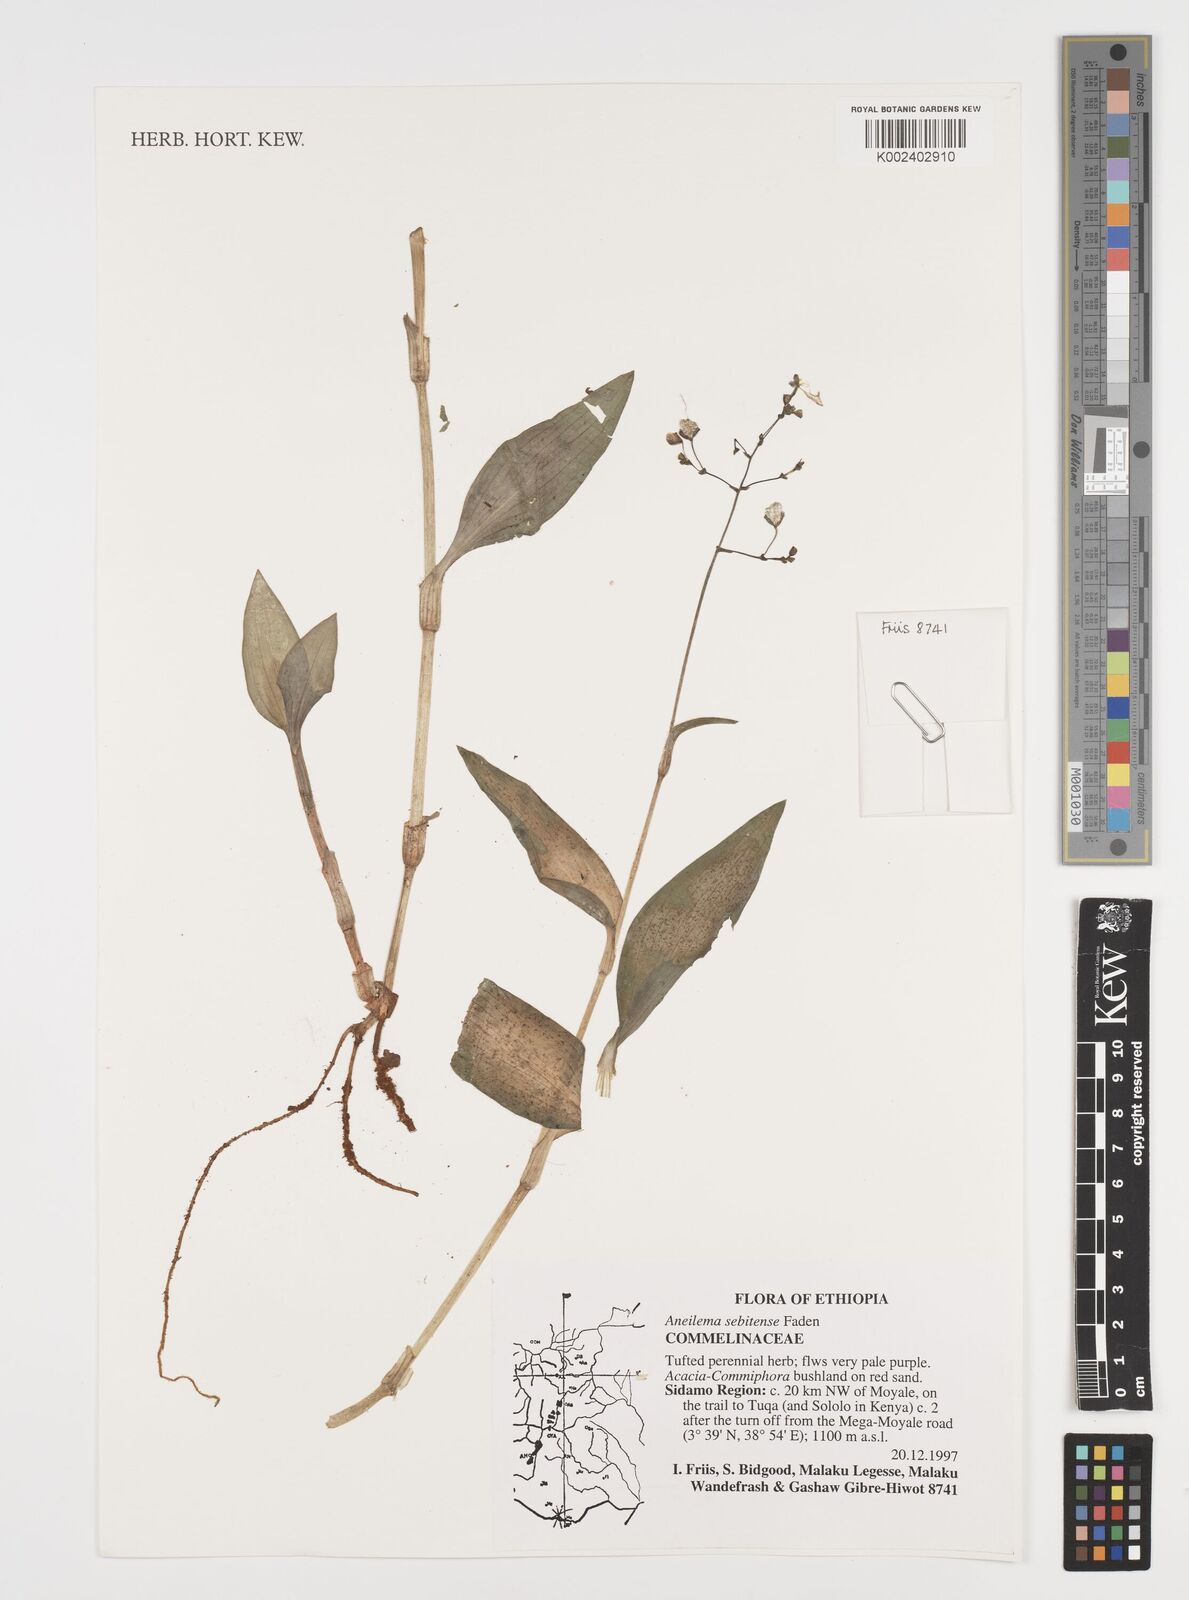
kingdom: Plantae
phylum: Tracheophyta
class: Liliopsida
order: Commelinales
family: Commelinaceae
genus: Aneilema
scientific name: Aneilema sebitense
